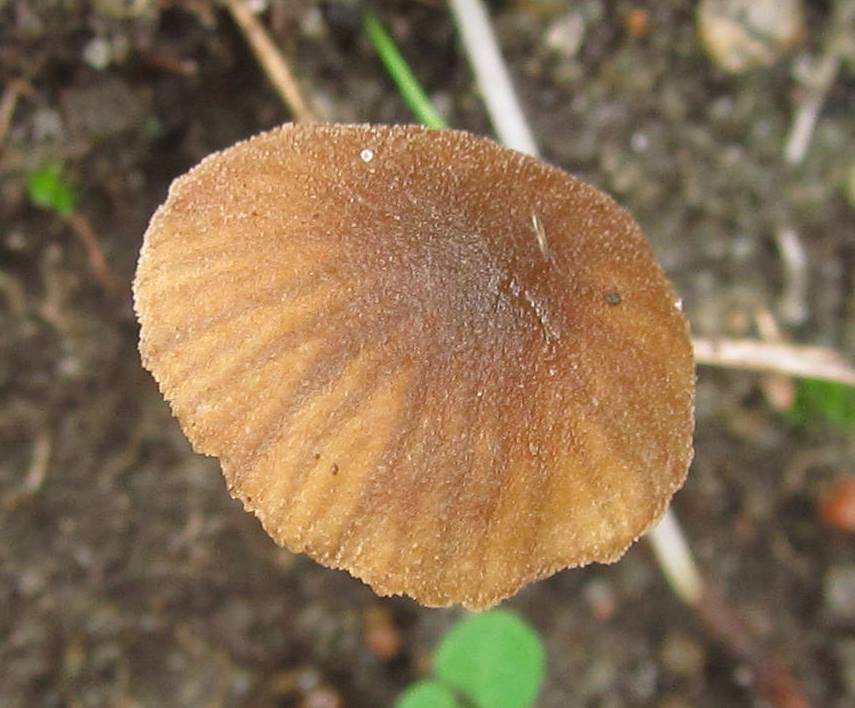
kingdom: Fungi
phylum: Basidiomycota
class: Agaricomycetes
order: Agaricales
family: Crepidotaceae
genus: Simocybe
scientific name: Simocybe filopes
